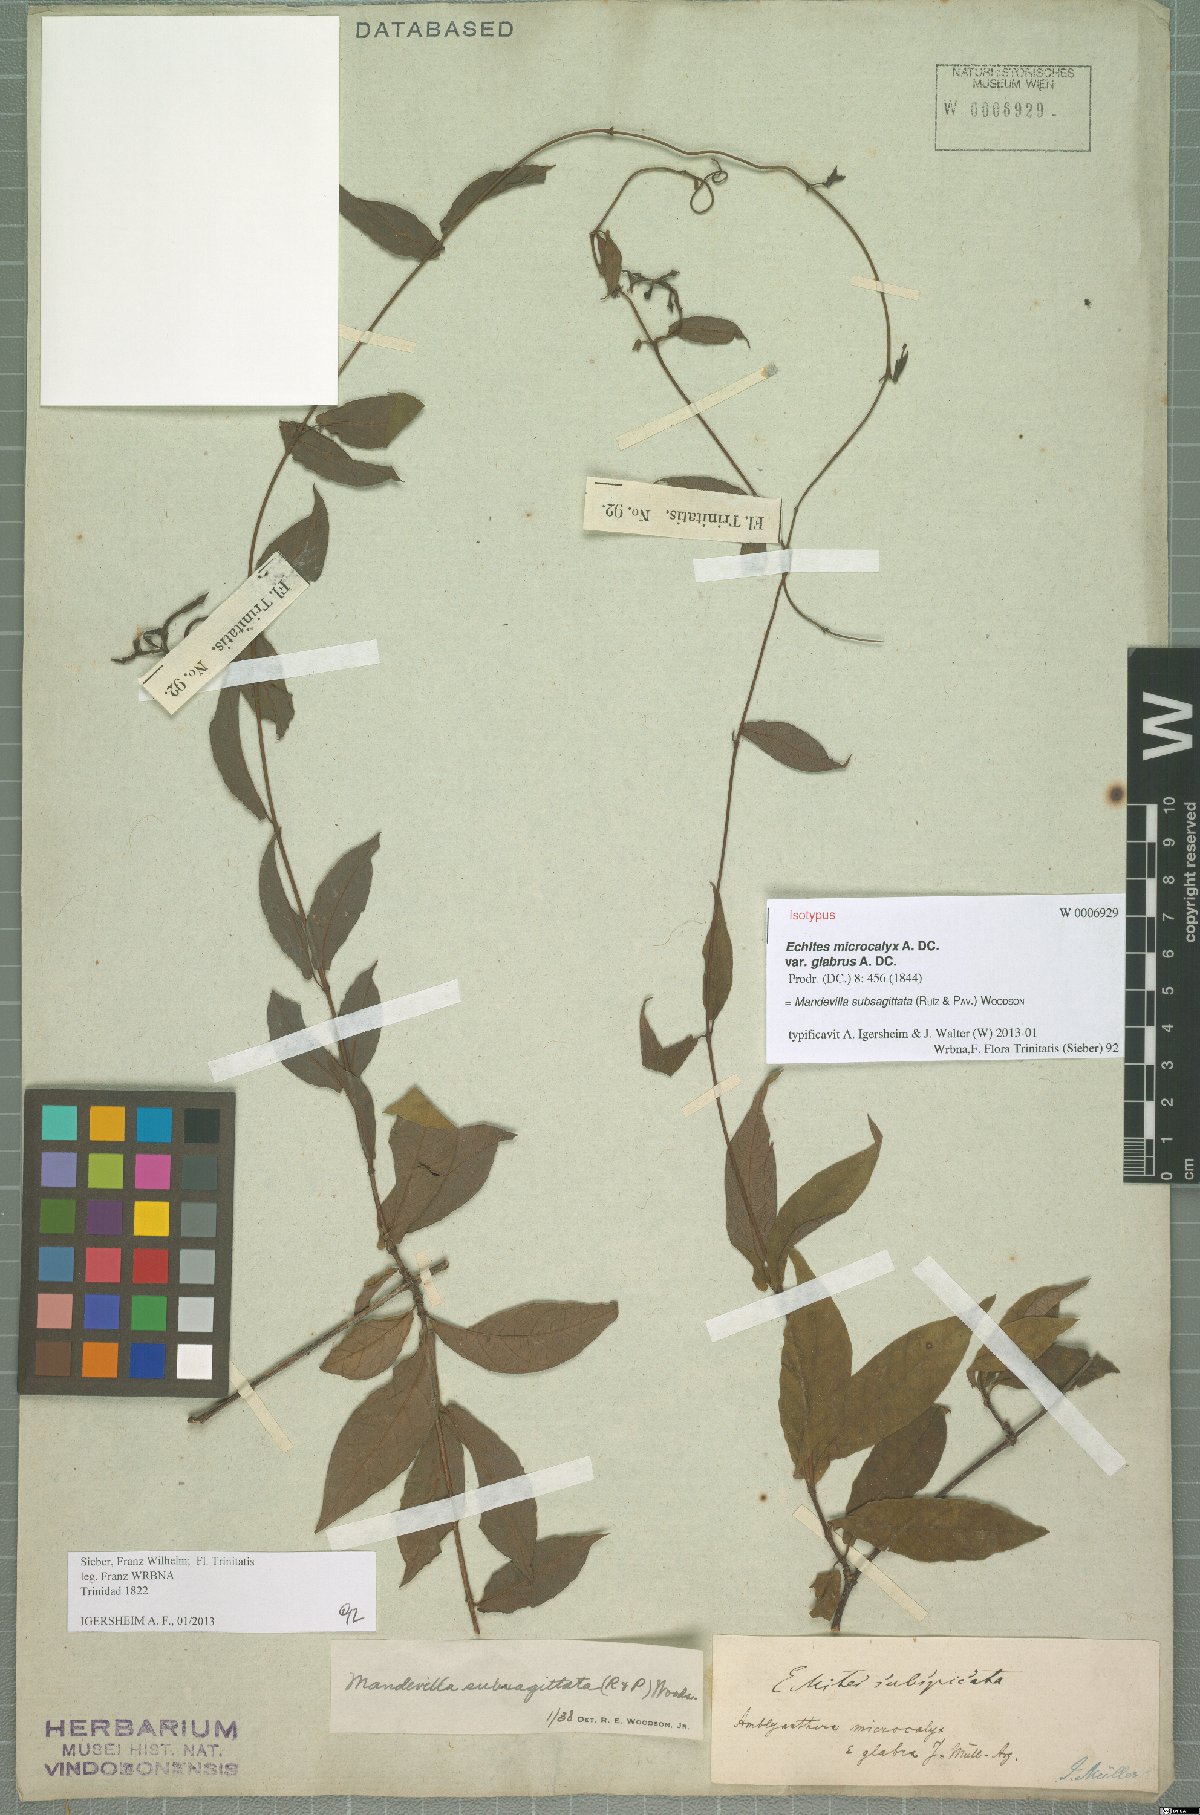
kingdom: Plantae
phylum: Tracheophyta
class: Magnoliopsida
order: Gentianales
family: Apocynaceae
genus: Mandevilla
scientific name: Mandevilla subsagittata
